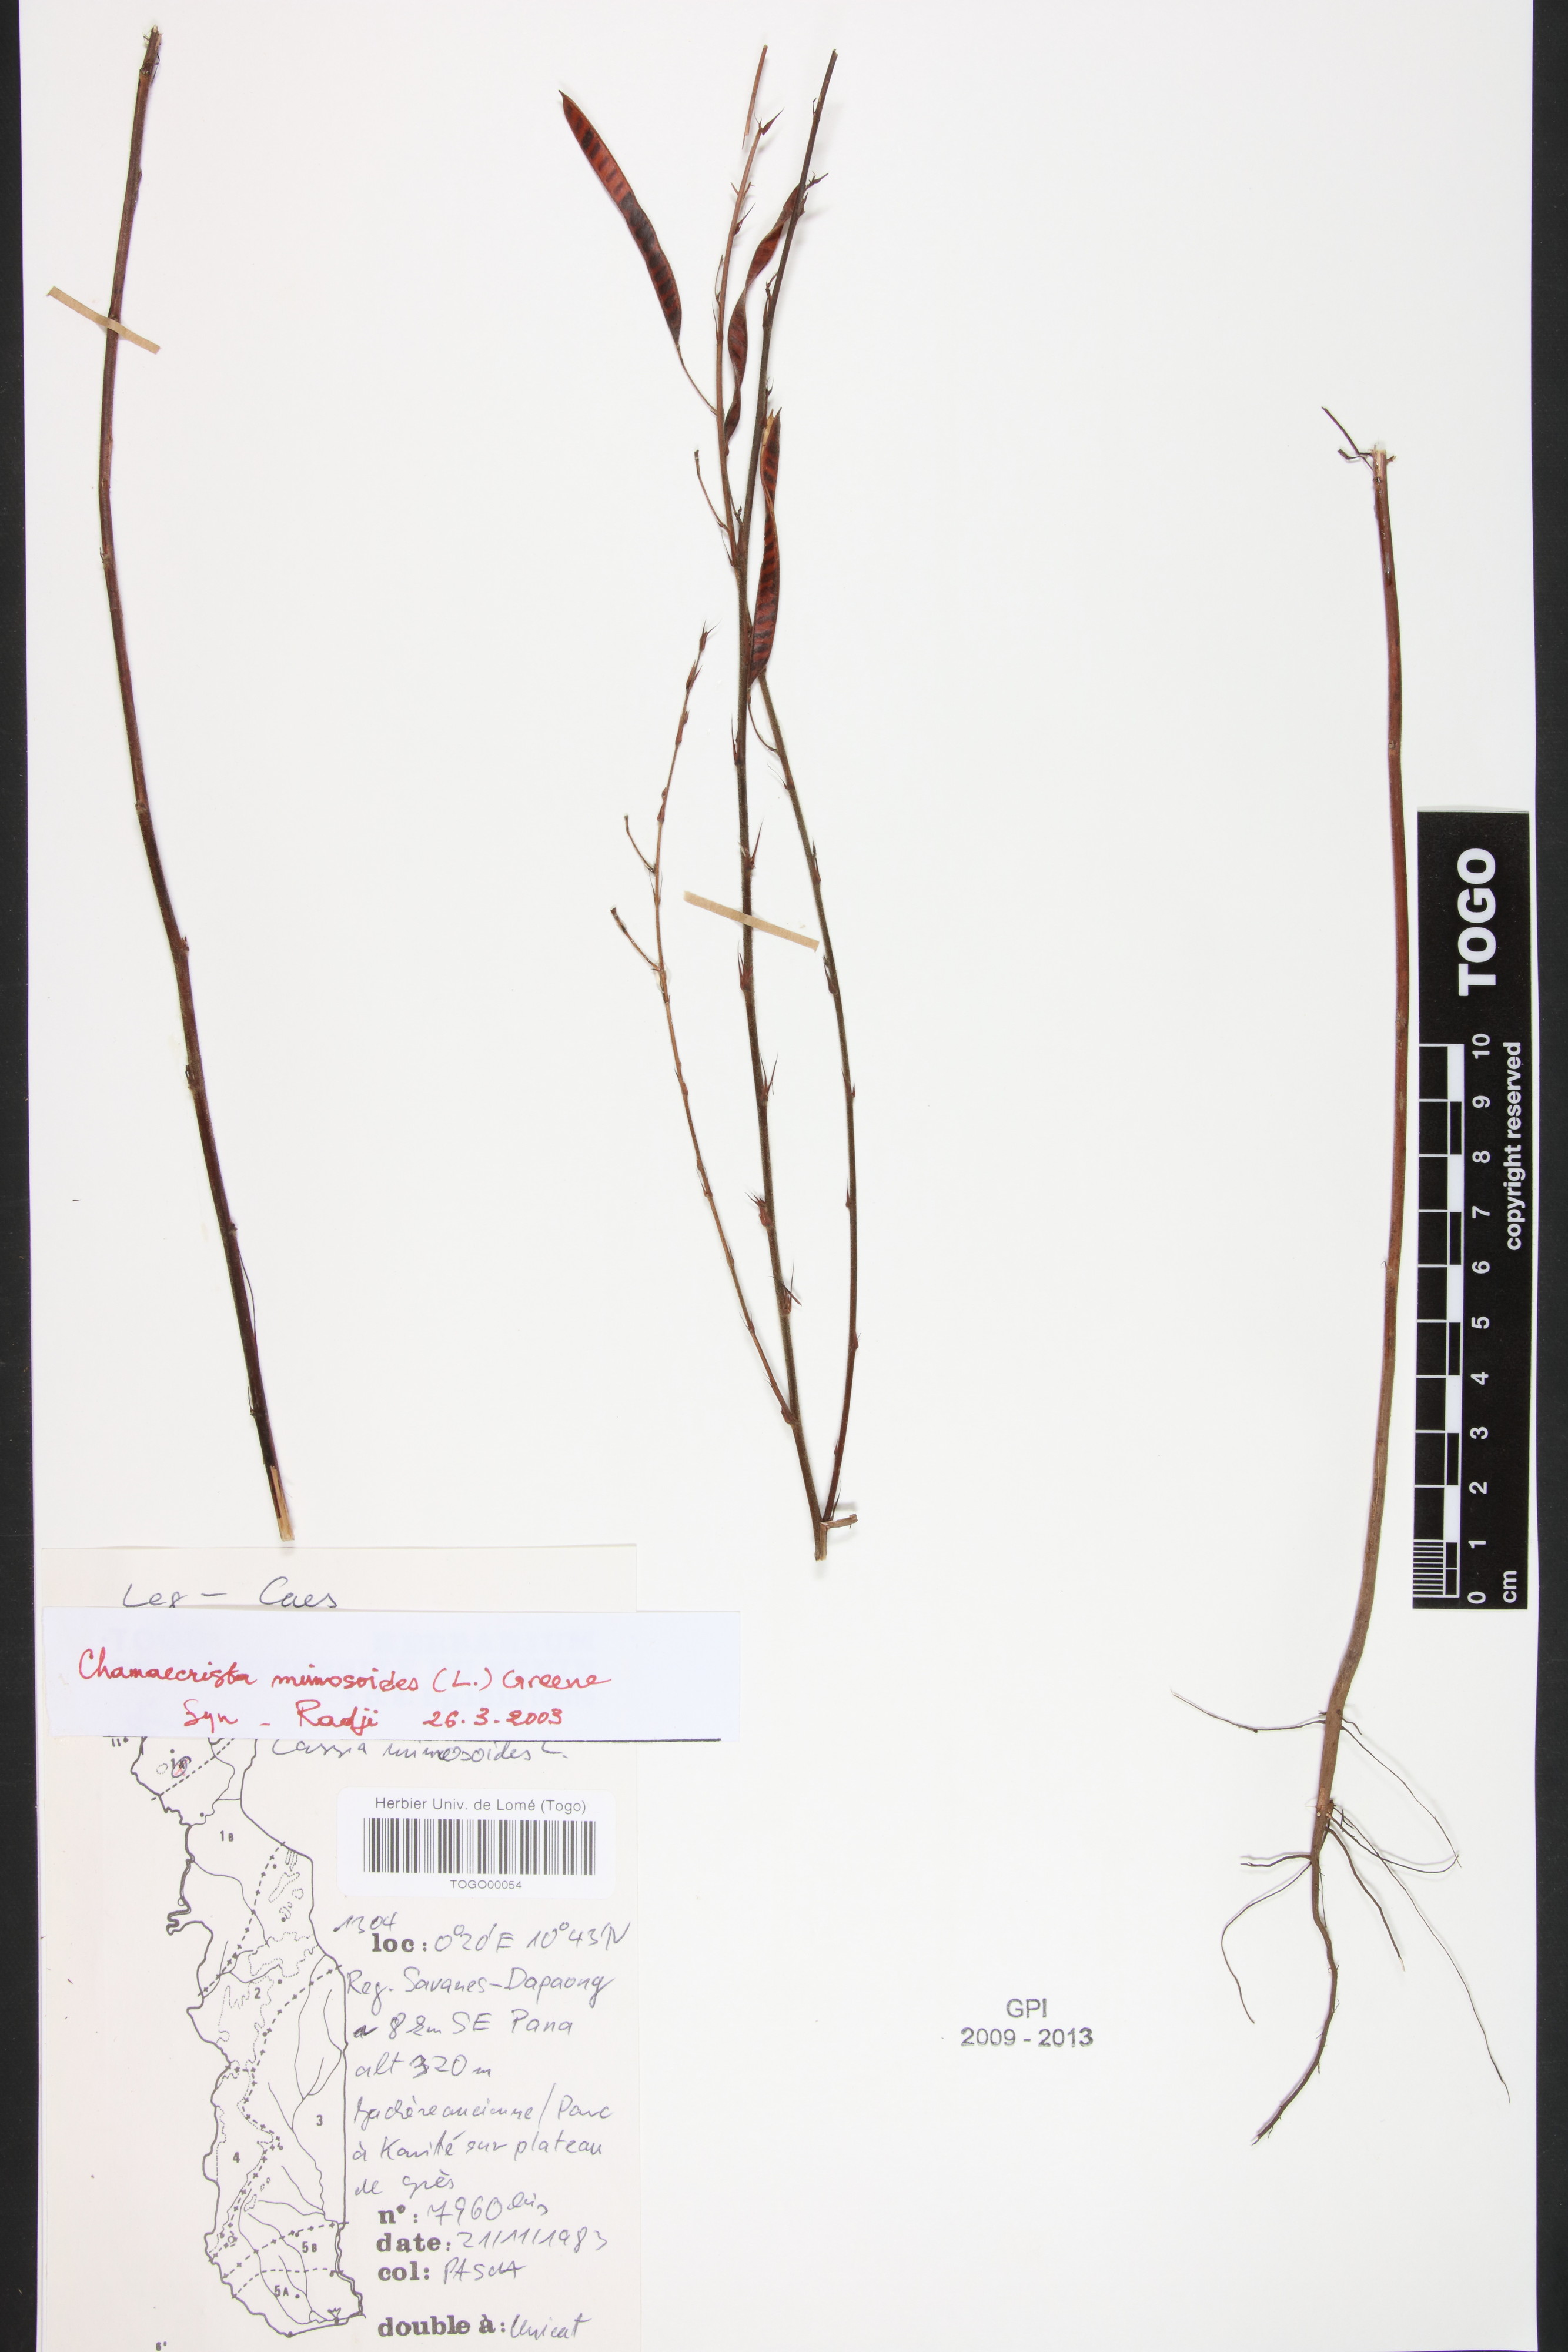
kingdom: Plantae
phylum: Tracheophyta
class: Magnoliopsida
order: Fabales
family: Fabaceae
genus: Chamaecrista
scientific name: Chamaecrista mimosoides
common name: Fish-bone cassia
